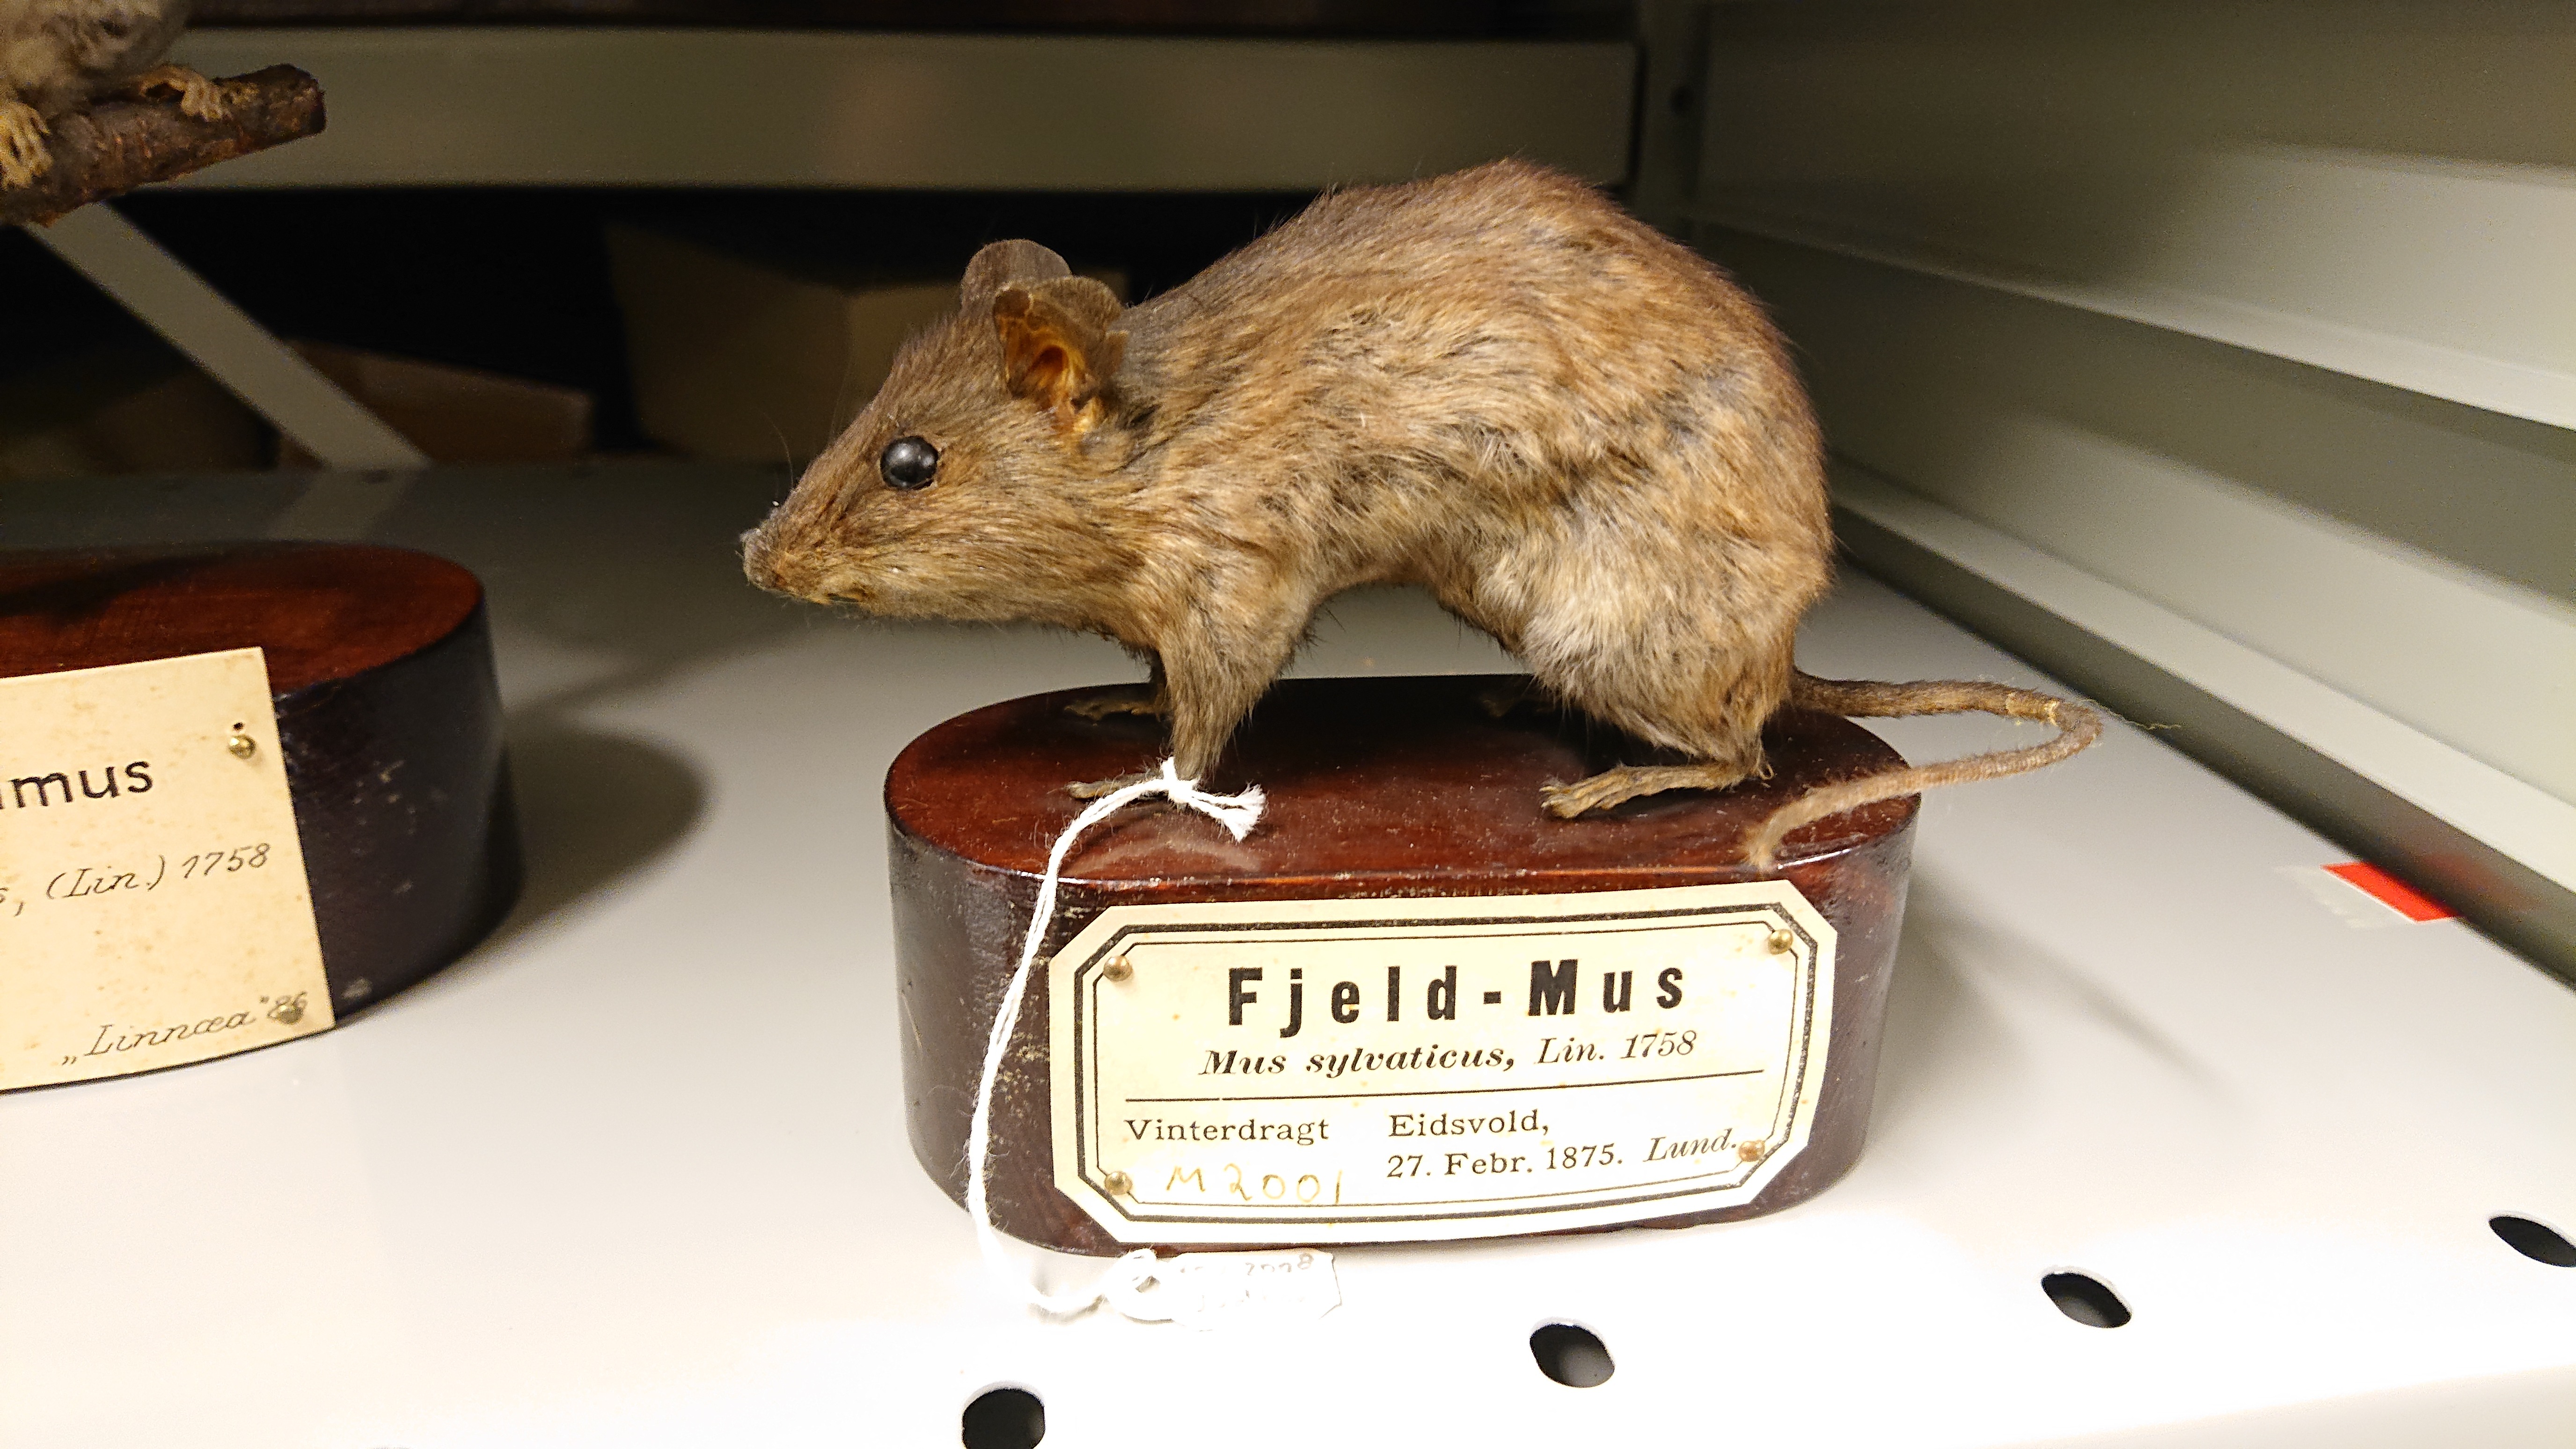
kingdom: Animalia
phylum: Chordata
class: Mammalia
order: Rodentia
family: Muridae
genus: Apodemus
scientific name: Apodemus flavicollis
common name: Yellow-necked field mouse
